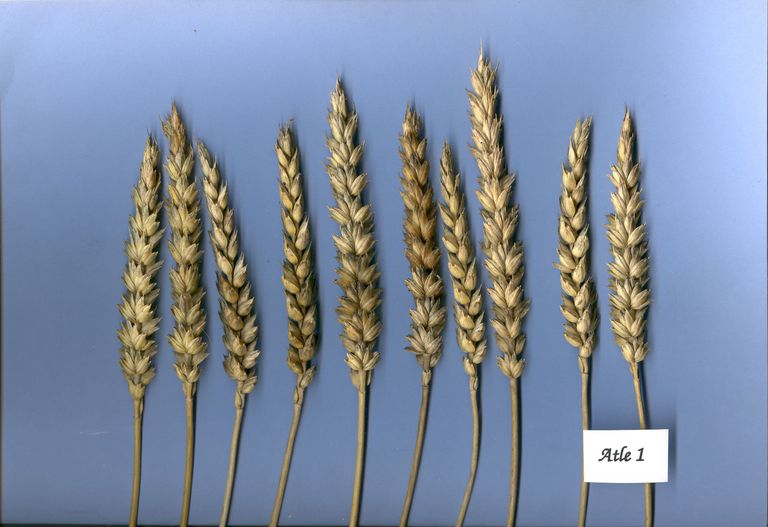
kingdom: Plantae
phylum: Tracheophyta
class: Liliopsida
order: Poales
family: Poaceae
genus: Triticum
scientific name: Triticum aestivum
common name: Common wheat
